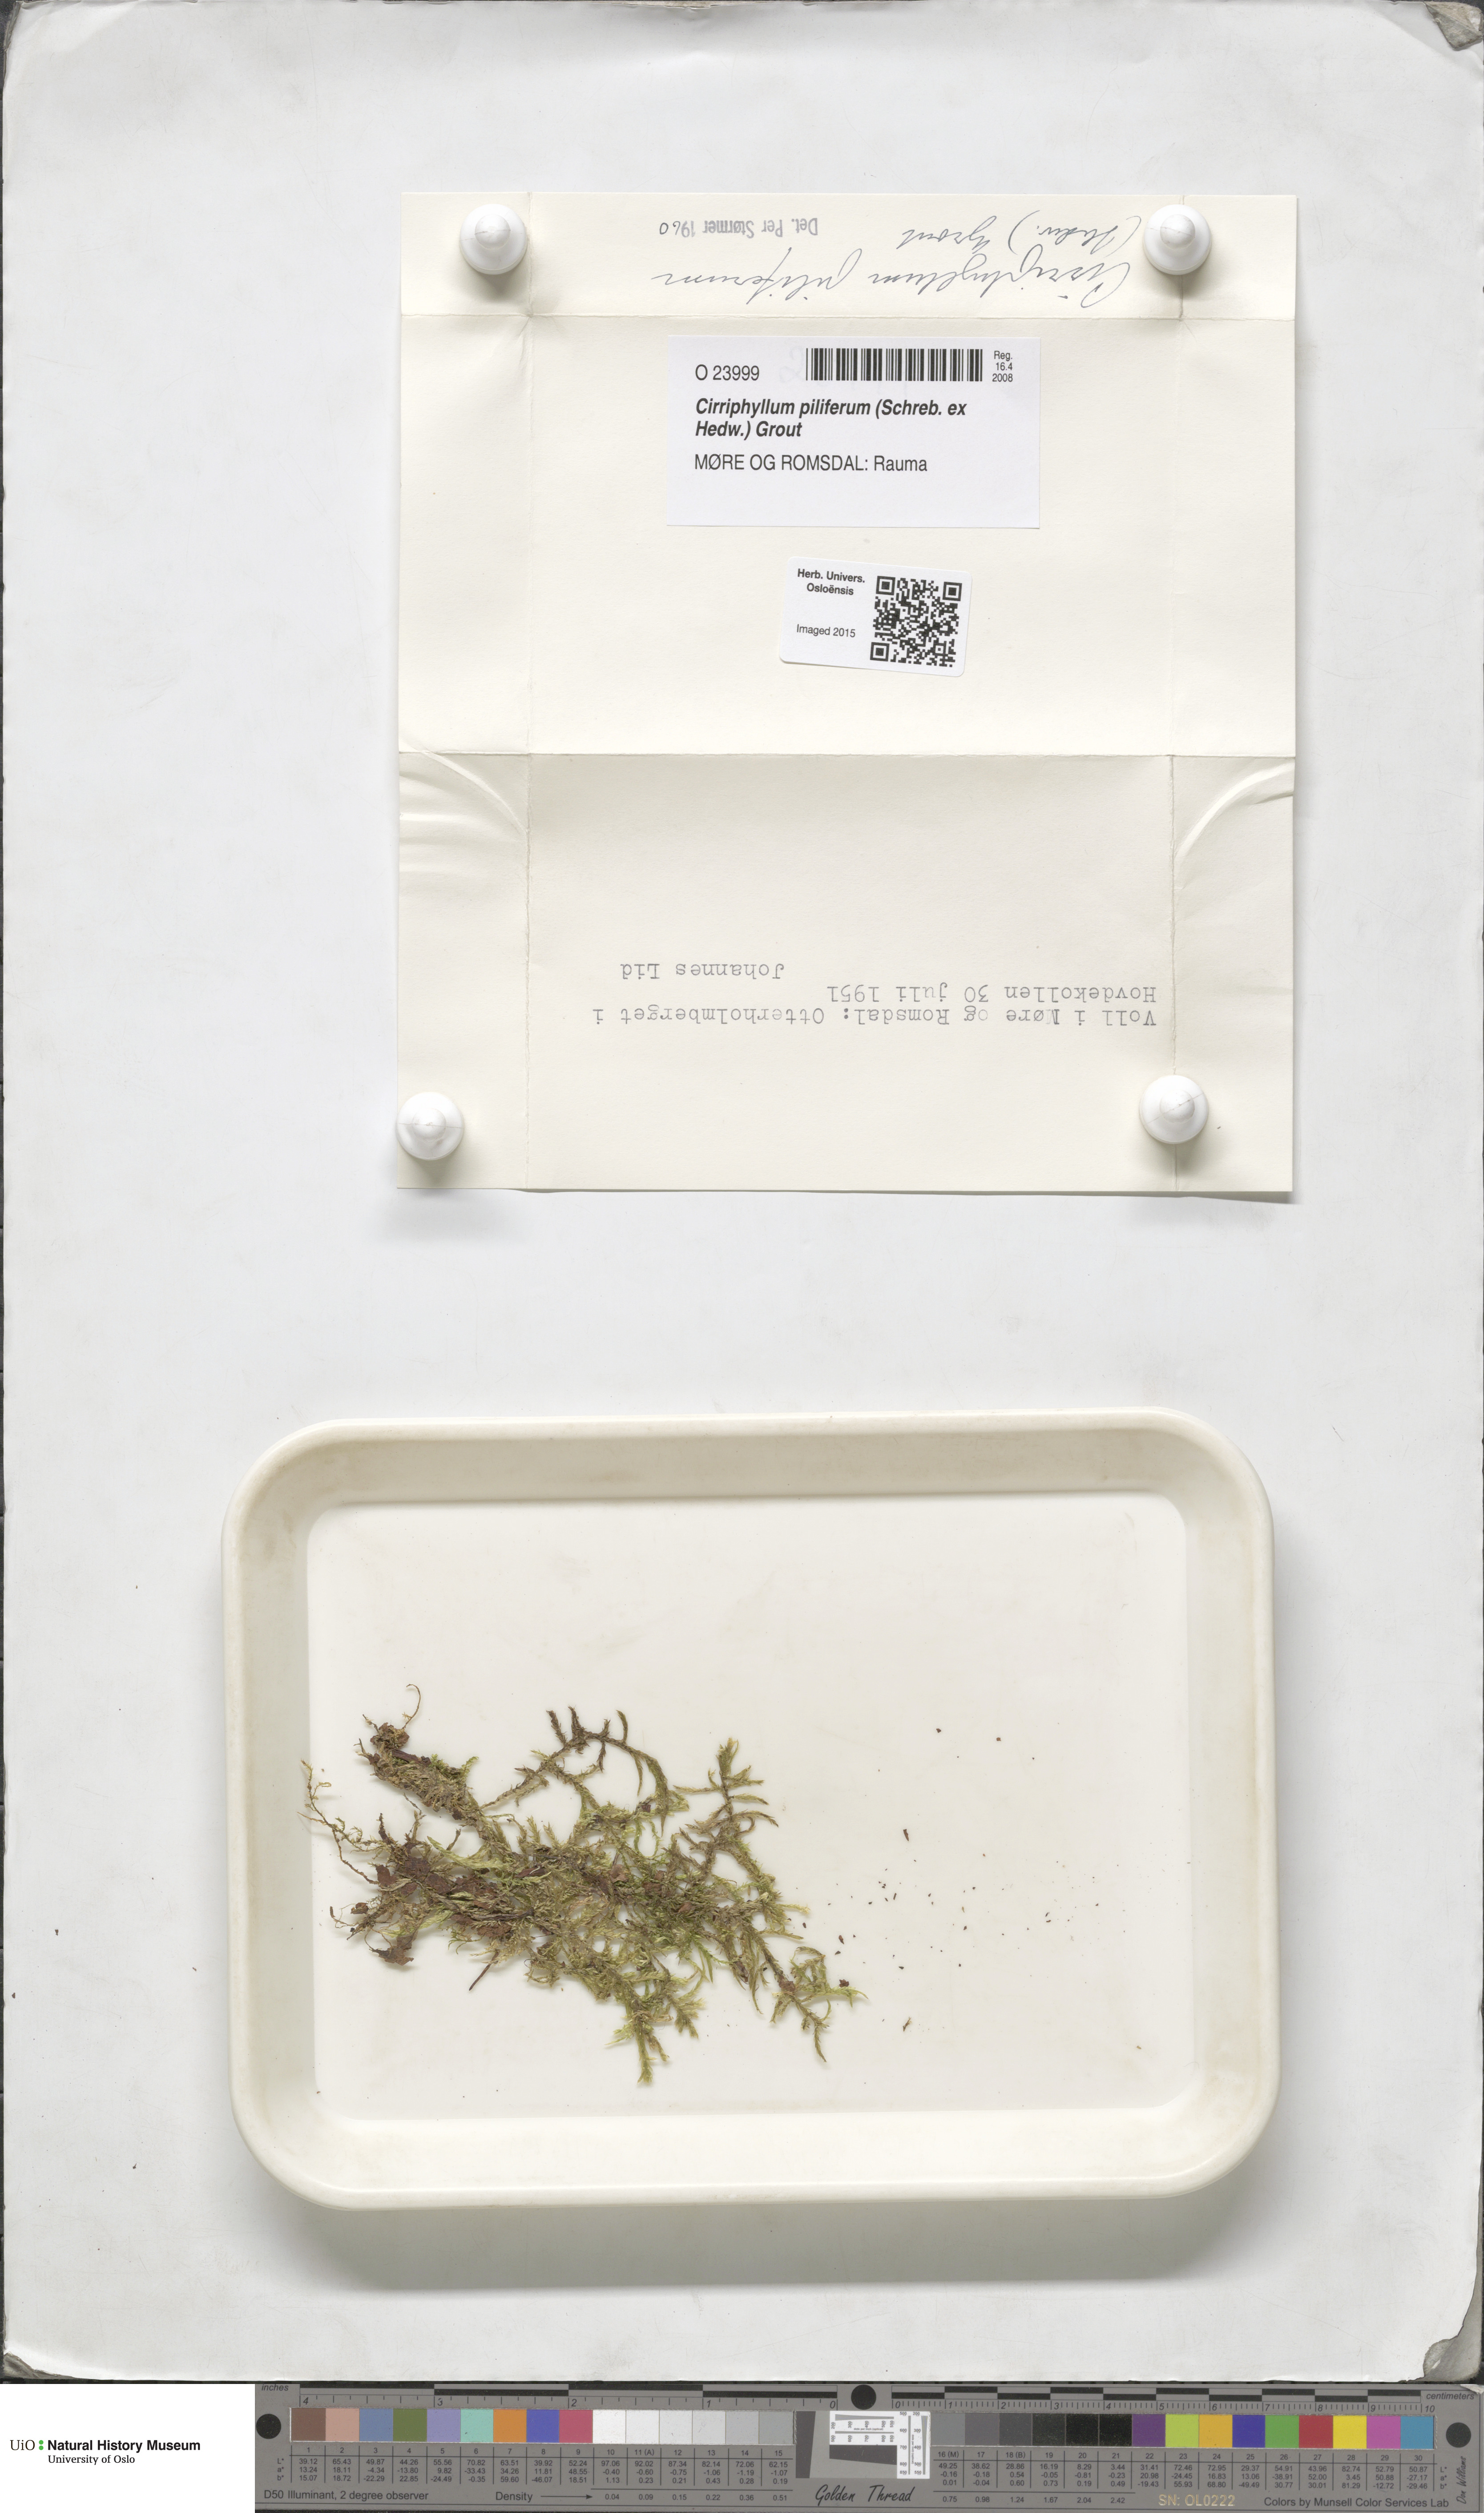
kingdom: Plantae
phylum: Bryophyta
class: Bryopsida
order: Hypnales
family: Brachytheciaceae
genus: Cirriphyllum
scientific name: Cirriphyllum piliferum
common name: Hair-pointed moss
